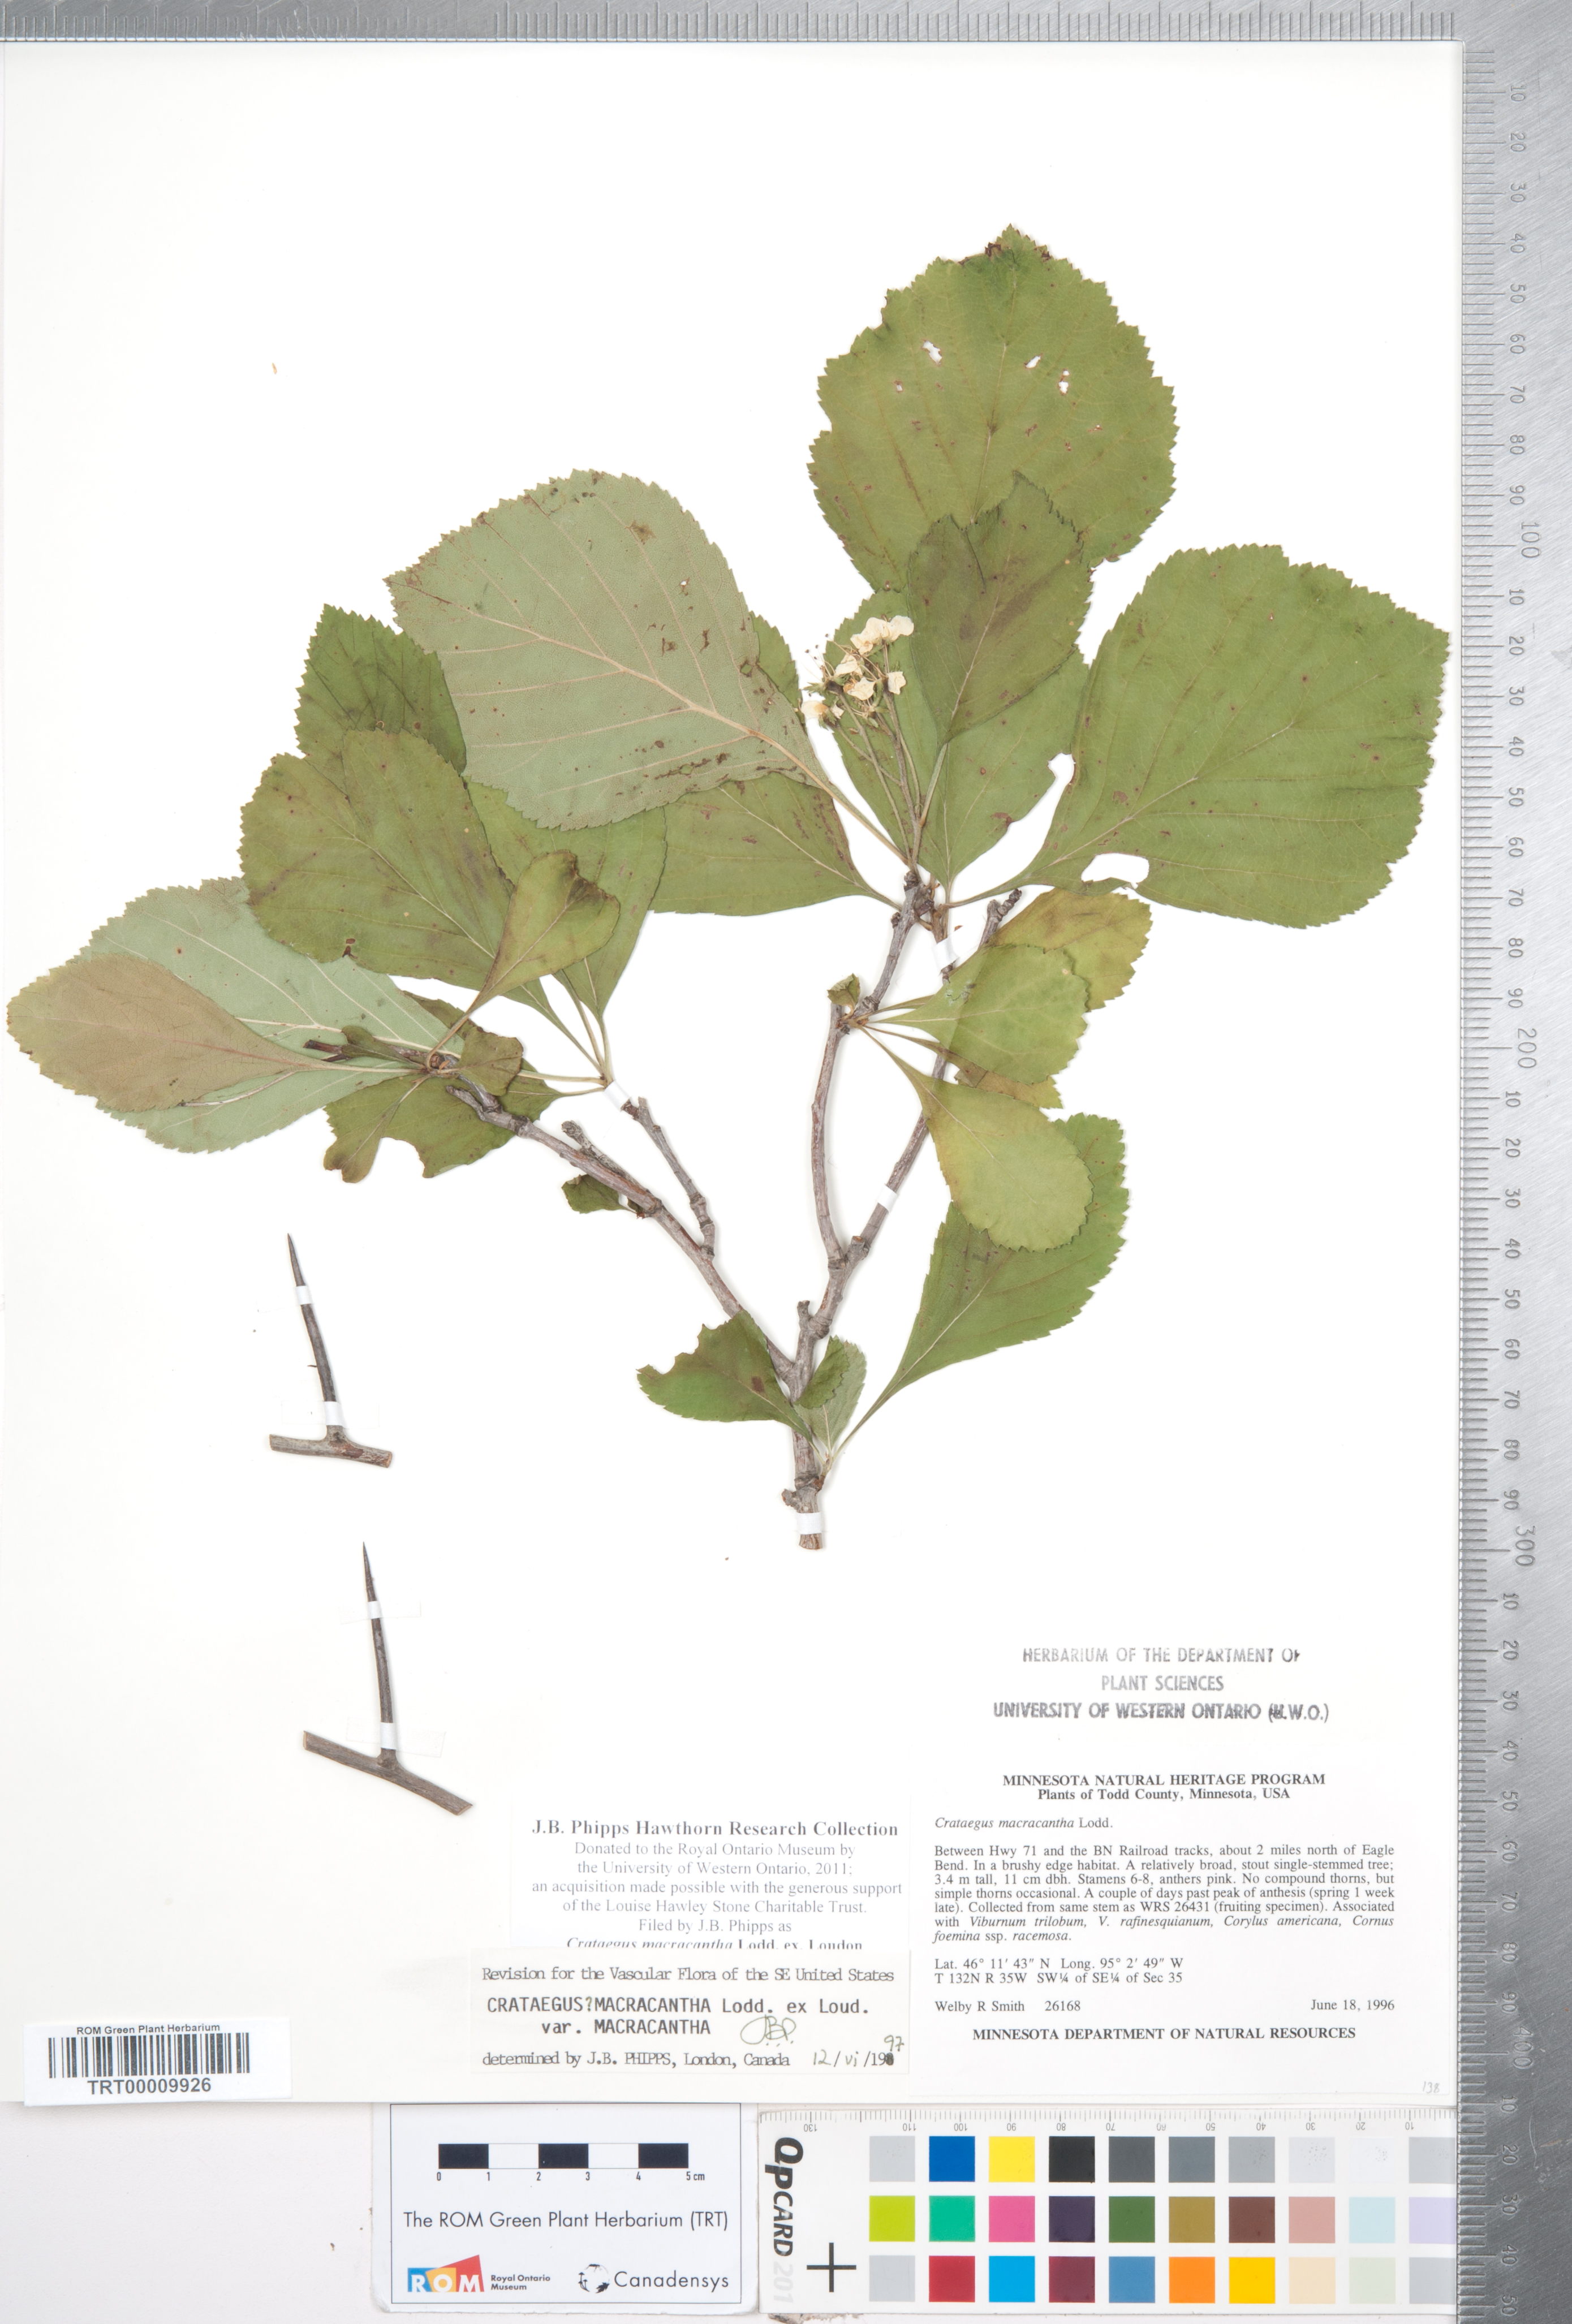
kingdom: Plantae
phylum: Tracheophyta
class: Magnoliopsida
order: Rosales
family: Rosaceae
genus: Crataegus
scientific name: Crataegus macracantha
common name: Large-thorn hawthorn
